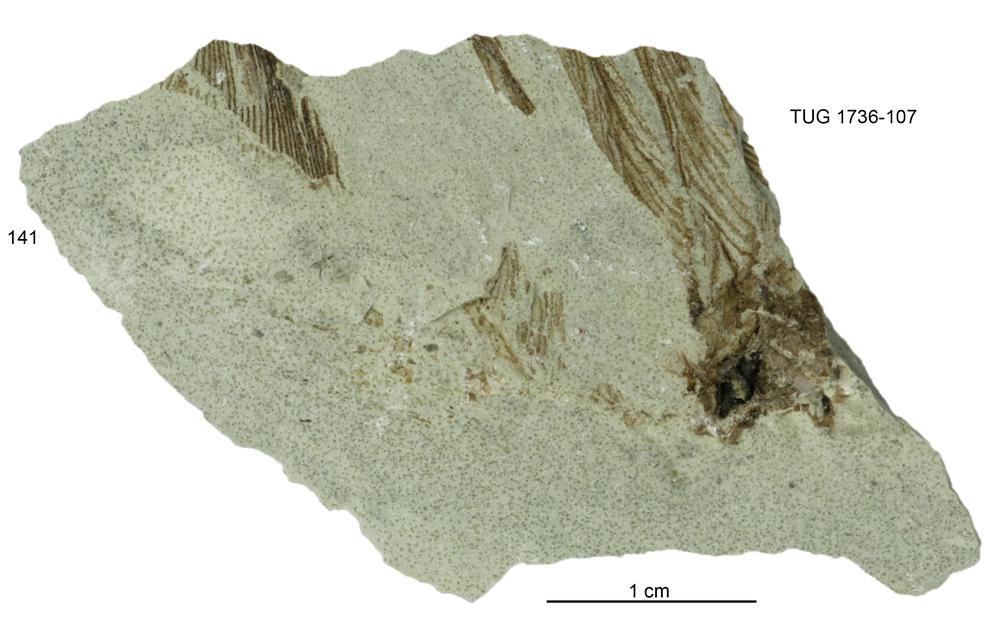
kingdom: Animalia
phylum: Echinodermata
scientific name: Echinodermata
